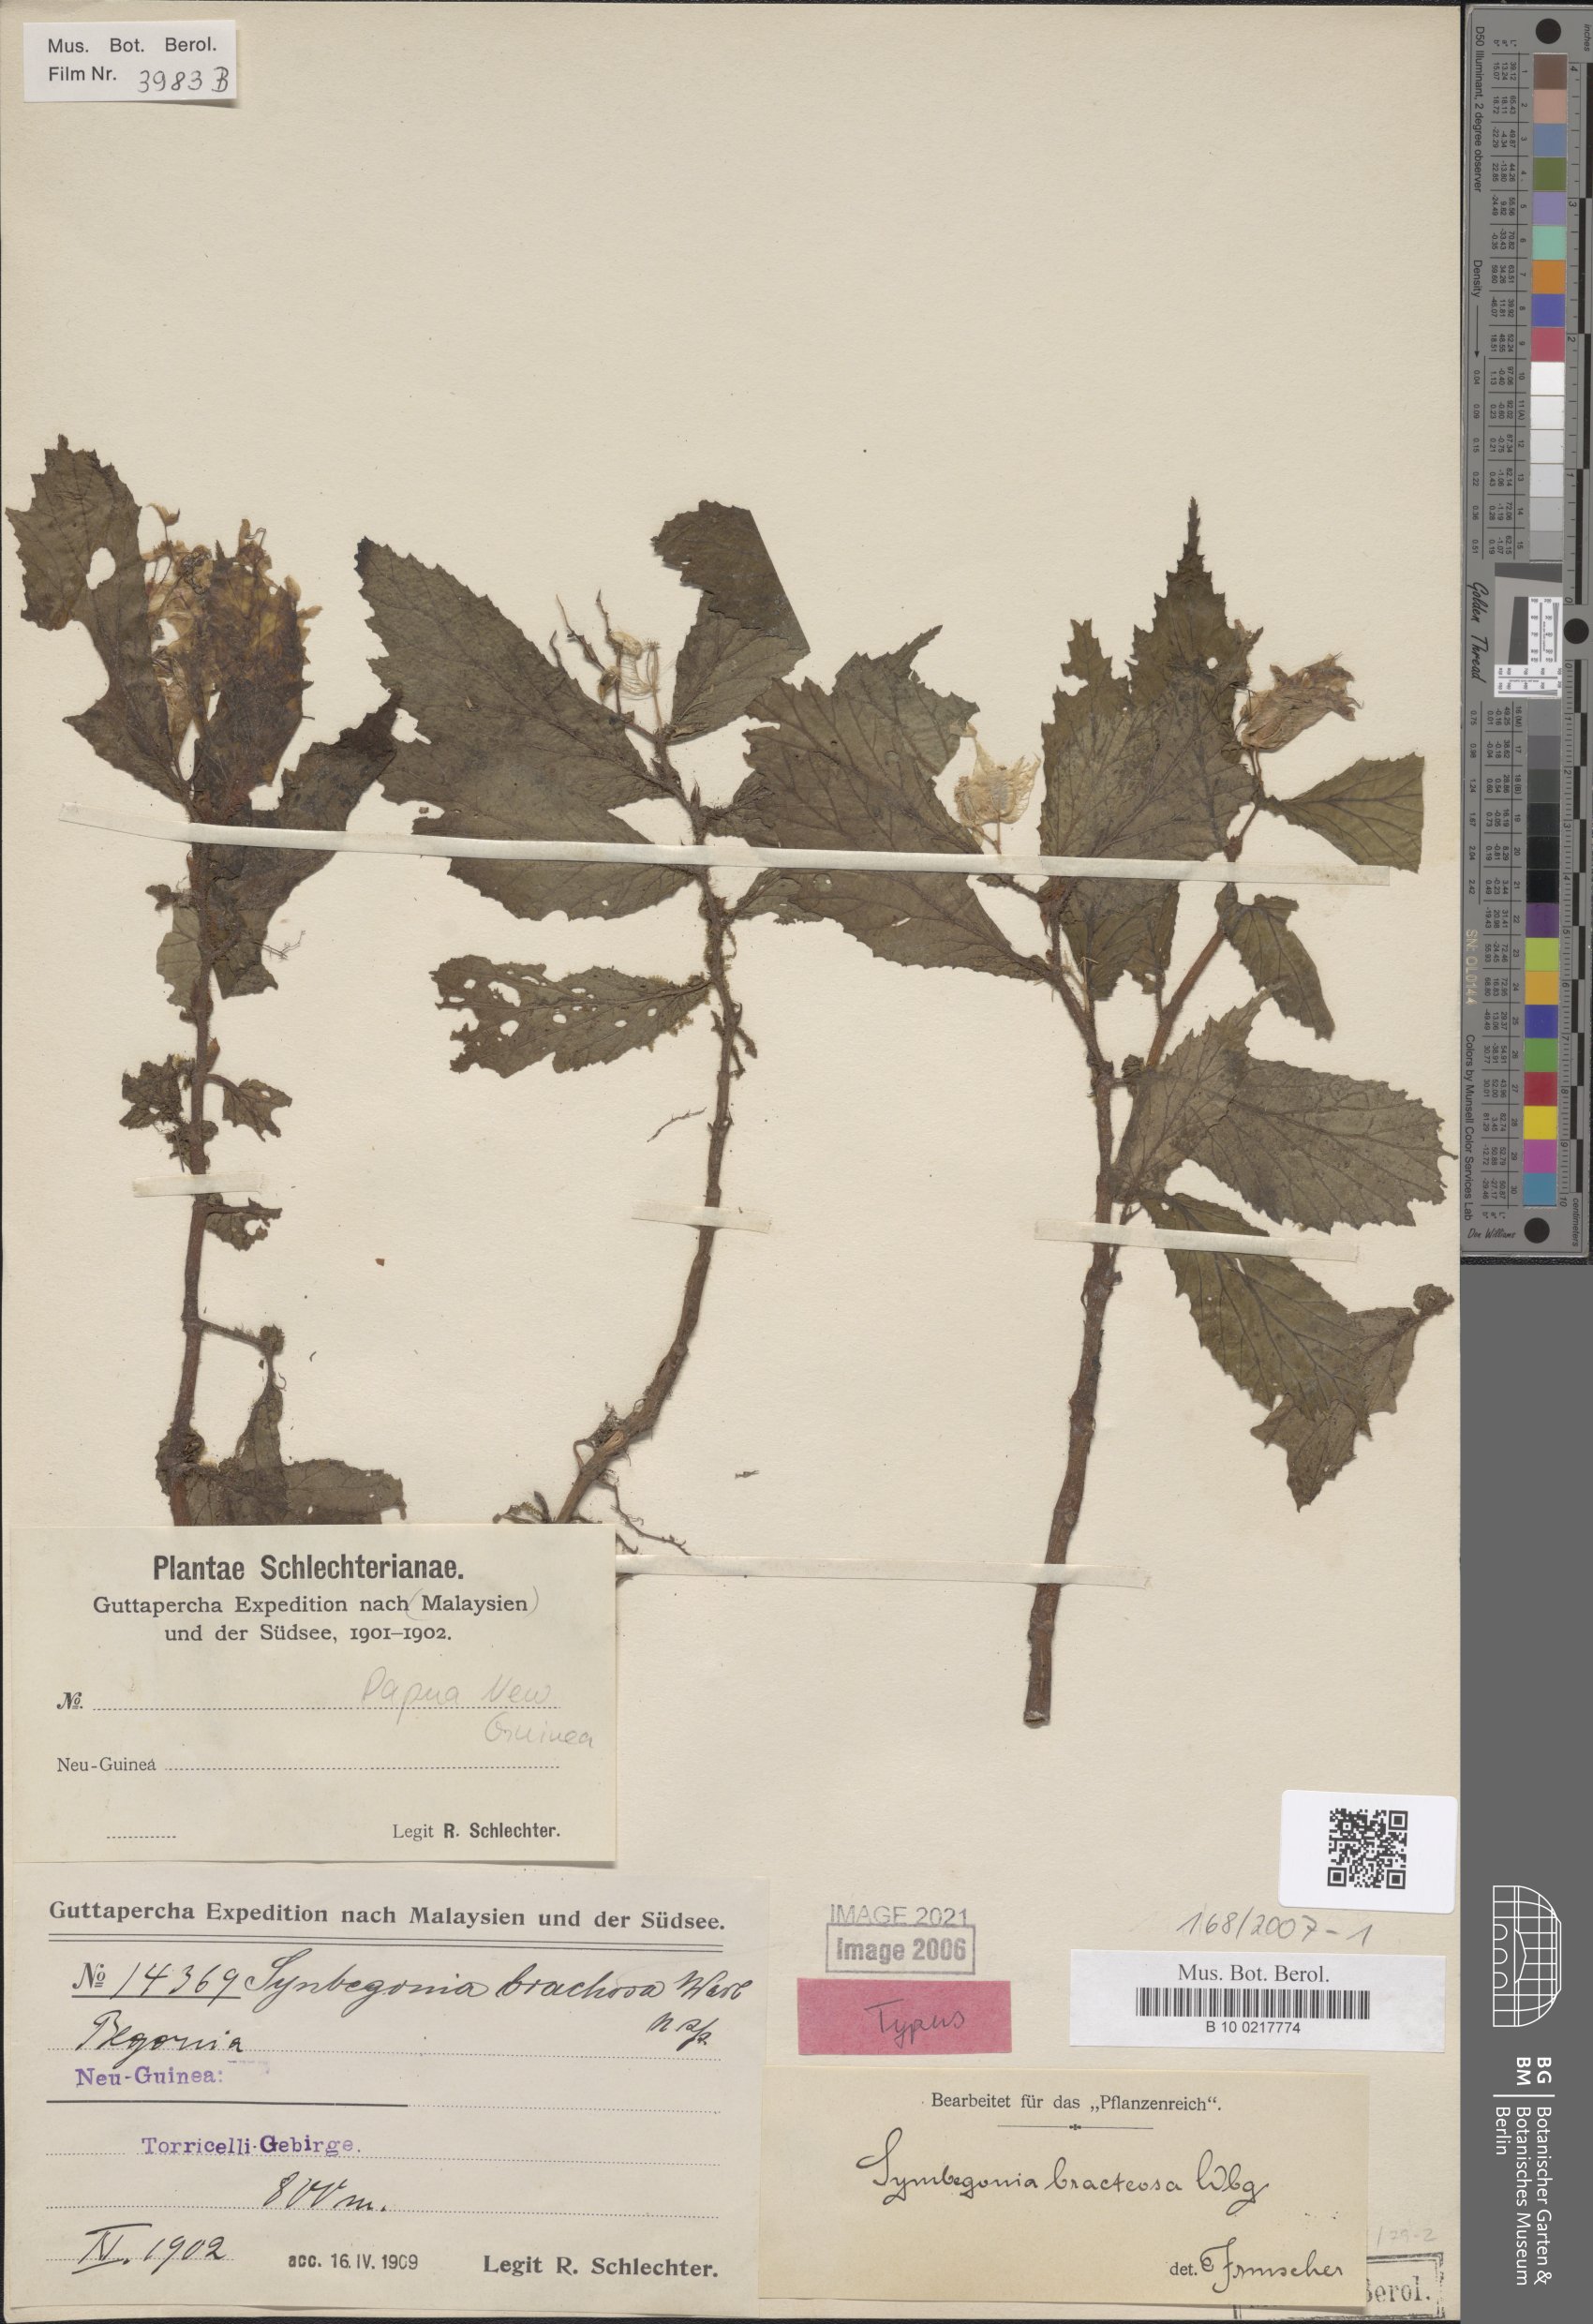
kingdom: Plantae
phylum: Tracheophyta
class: Magnoliopsida
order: Cucurbitales
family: Begoniaceae
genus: Begonia
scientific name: Begonia symbracteosa
